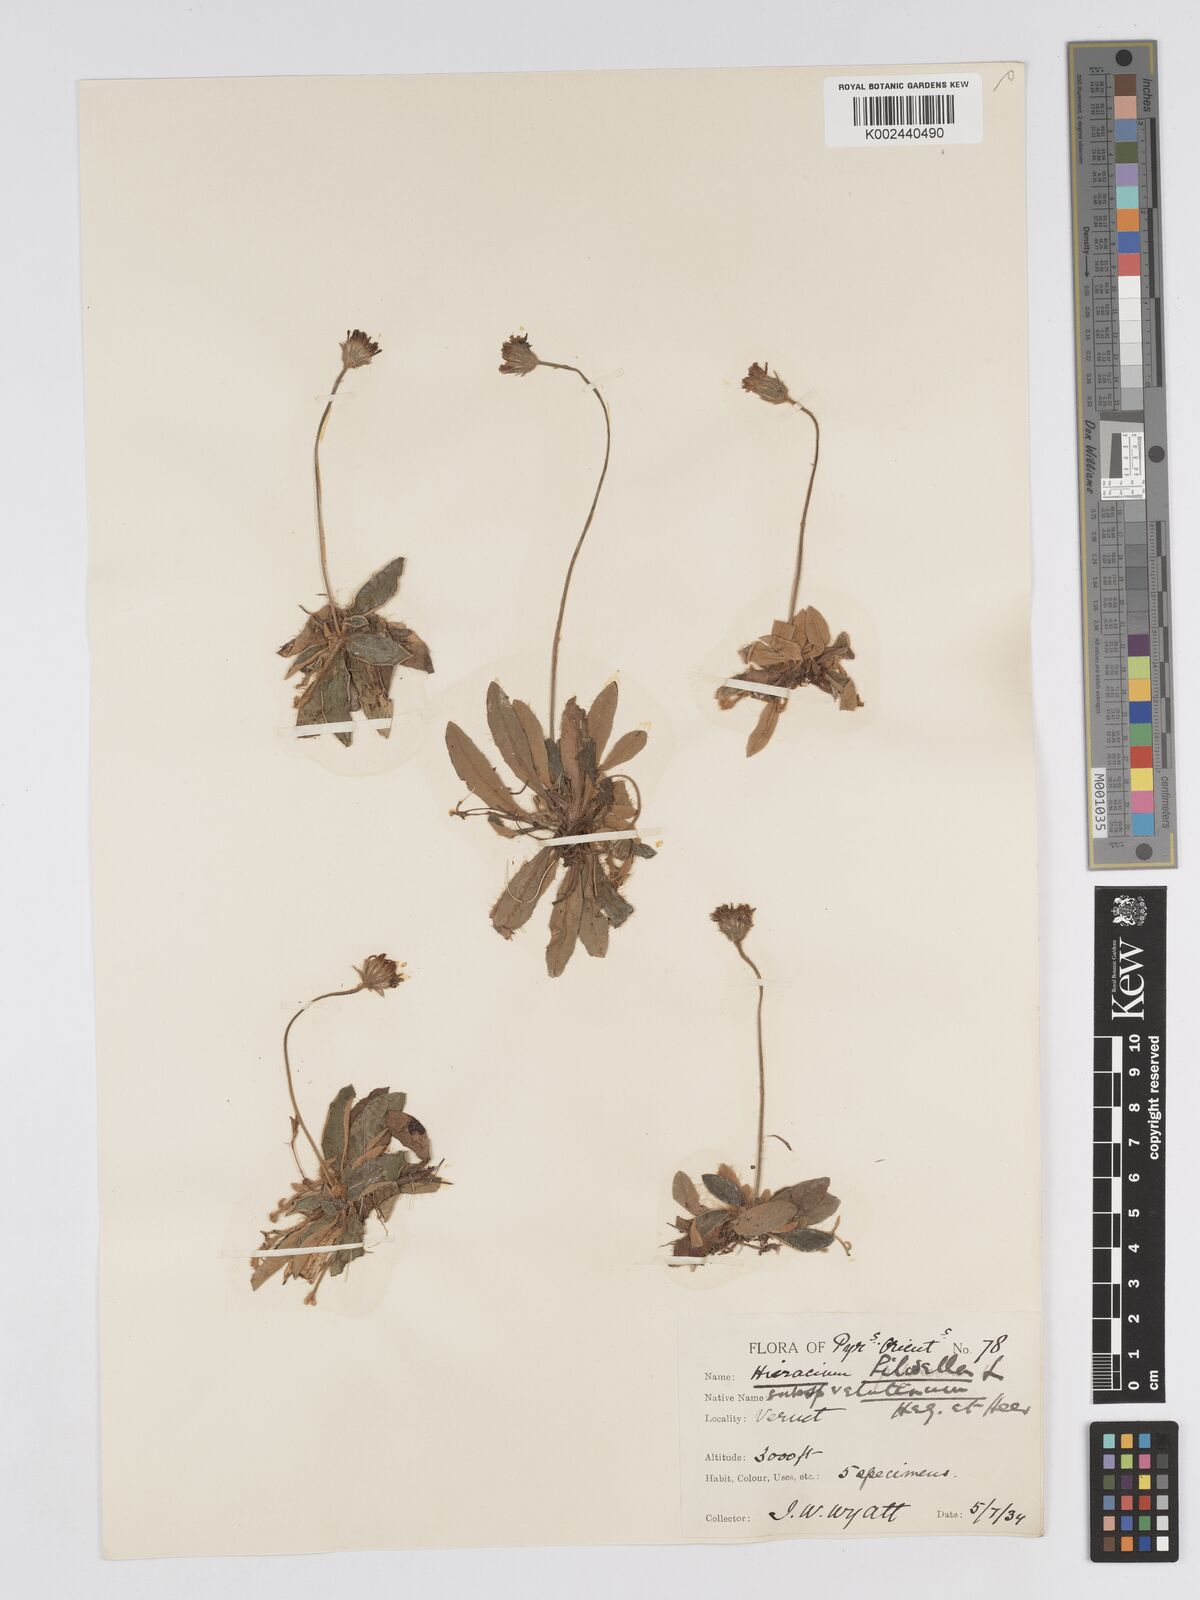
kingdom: Plantae
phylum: Tracheophyta
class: Magnoliopsida
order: Asterales
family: Asteraceae
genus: Pilosella
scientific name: Pilosella velutina
